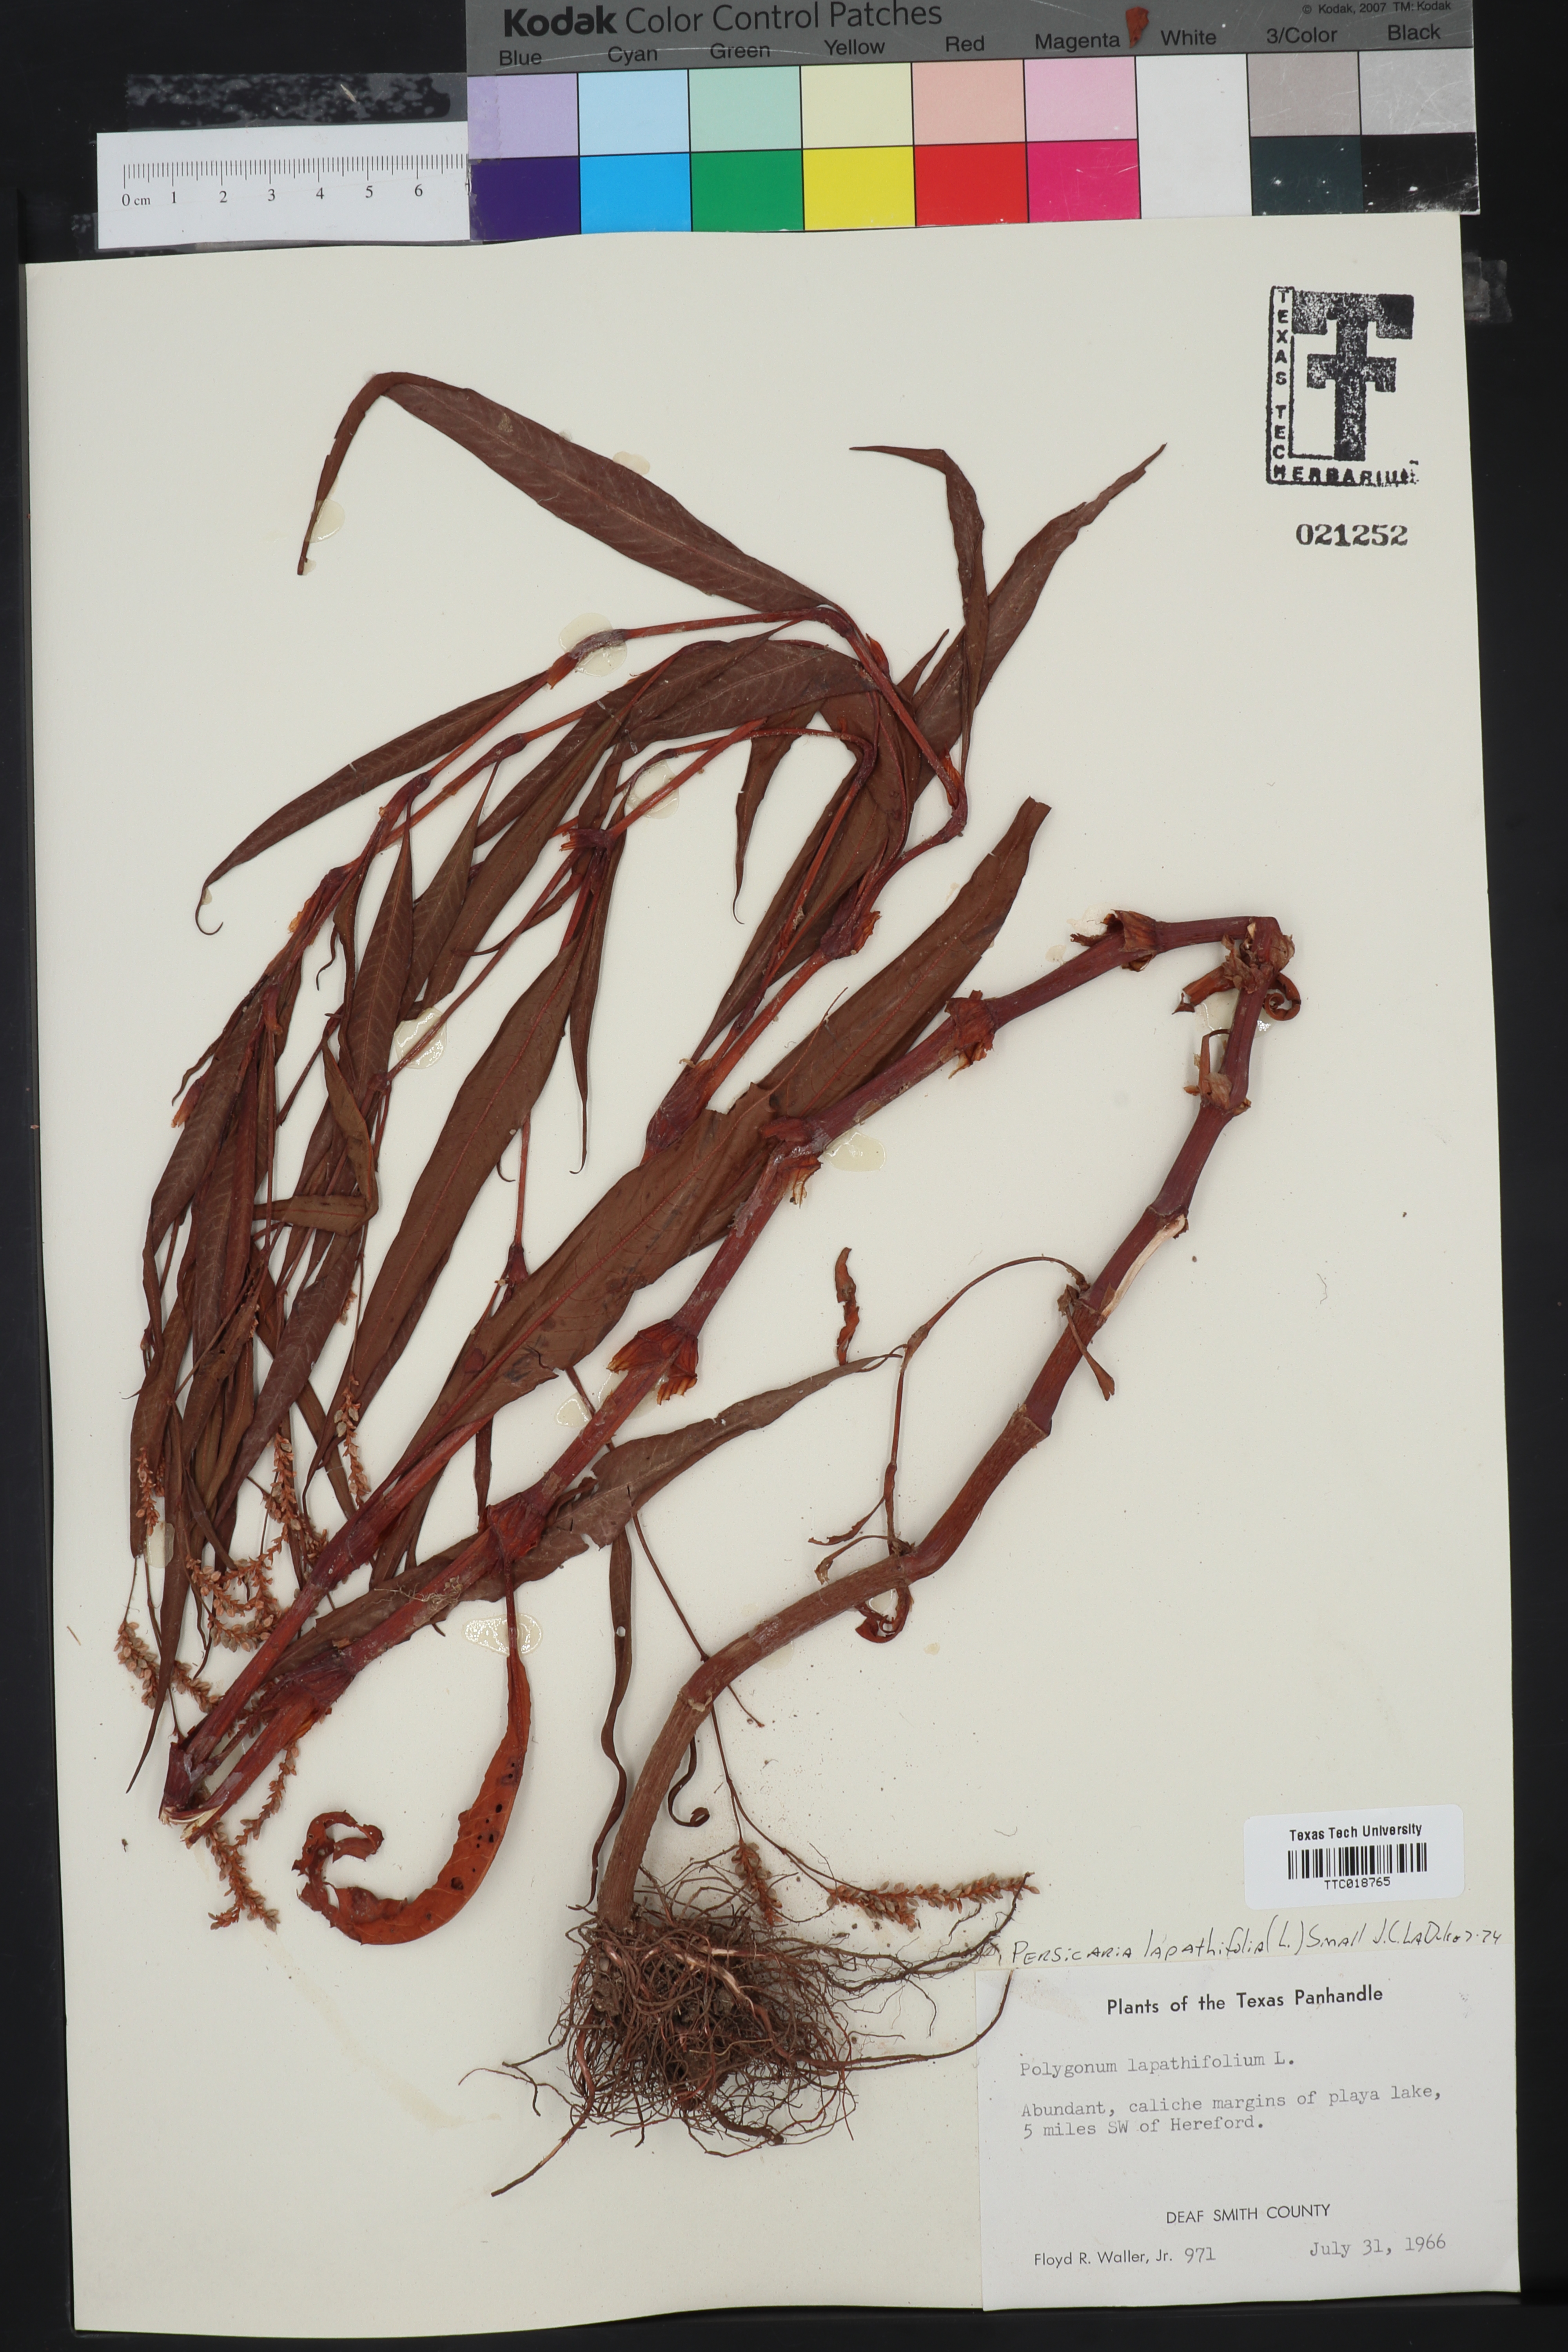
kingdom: Plantae
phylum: Tracheophyta
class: Magnoliopsida
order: Caryophyllales
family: Polygonaceae
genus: Persicaria
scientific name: Persicaria lapathifolia
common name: Curlytop knotweed
